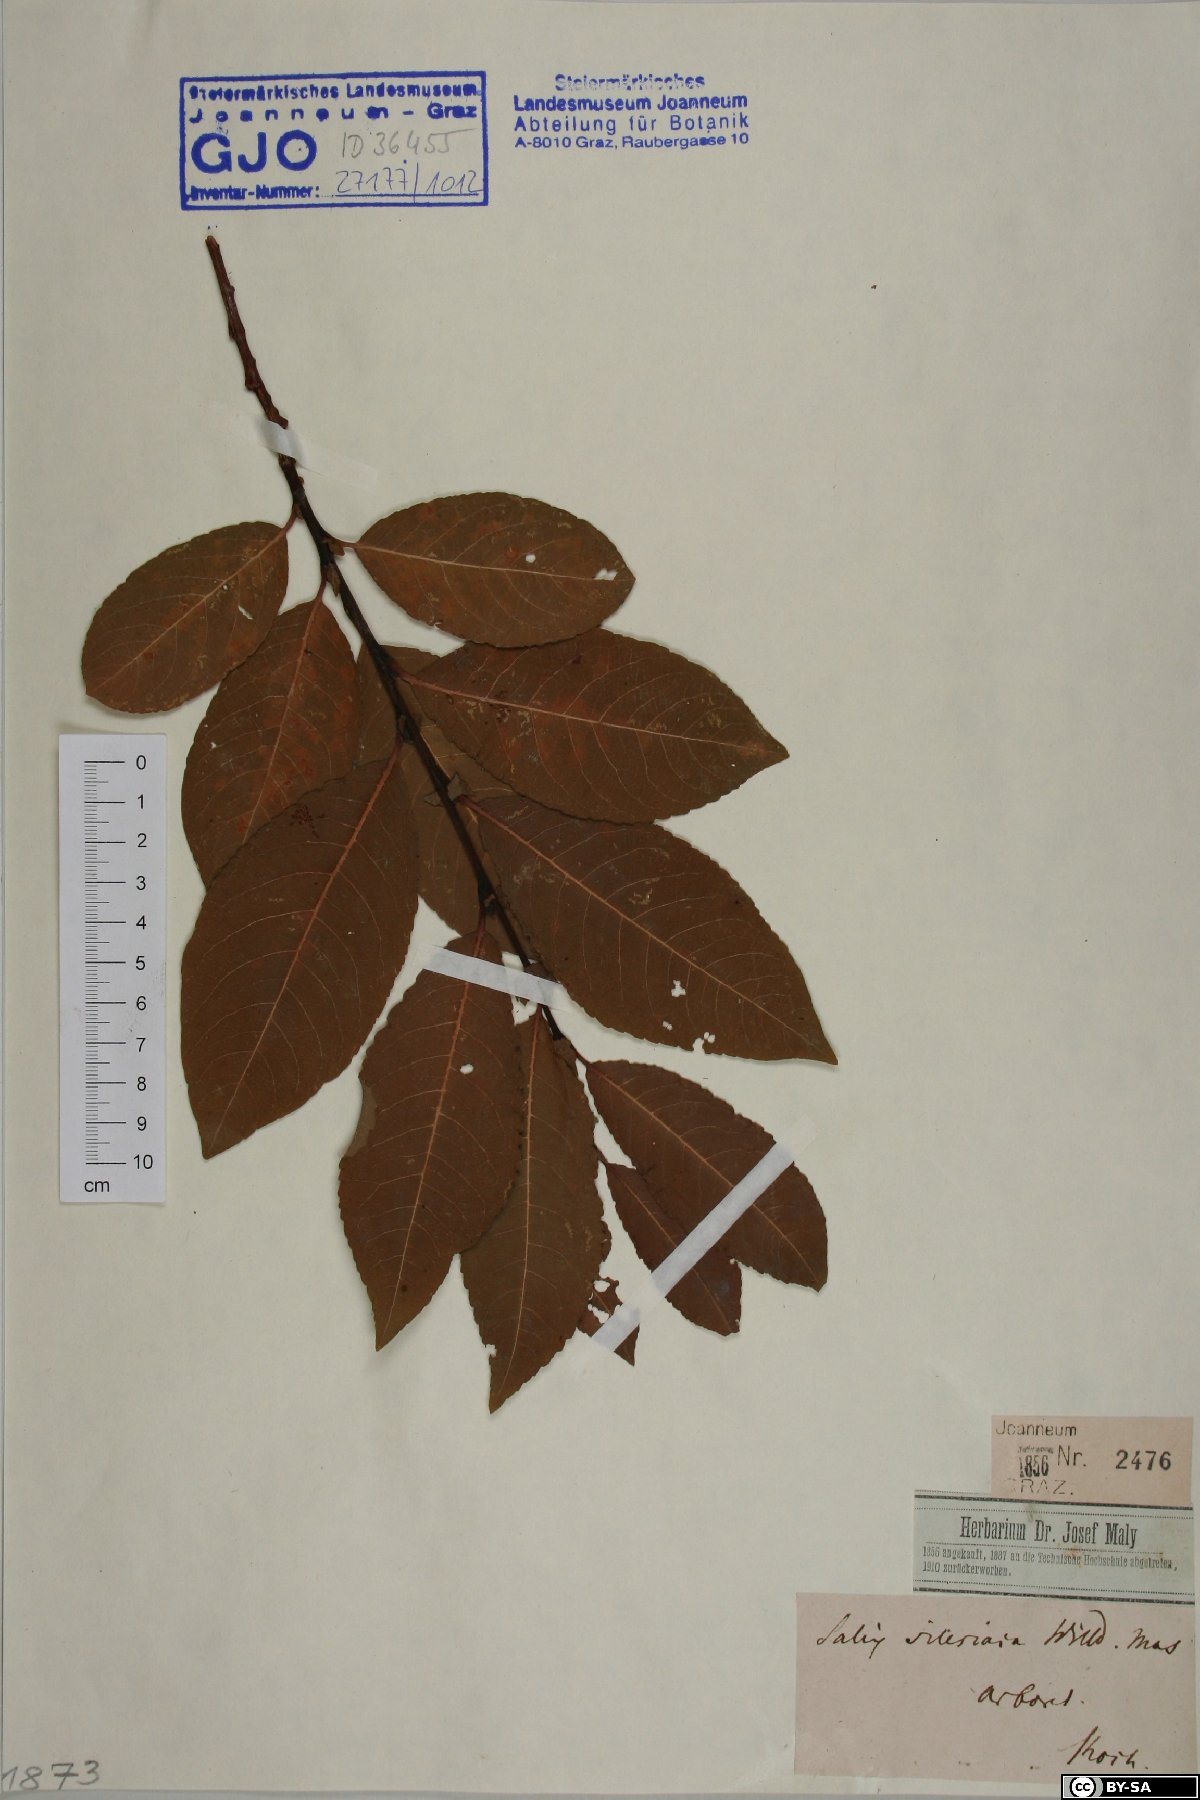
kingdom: Plantae
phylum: Tracheophyta
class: Magnoliopsida
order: Malpighiales
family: Salicaceae
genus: Salix
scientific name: Salix silesiaca
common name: Silesian willow
